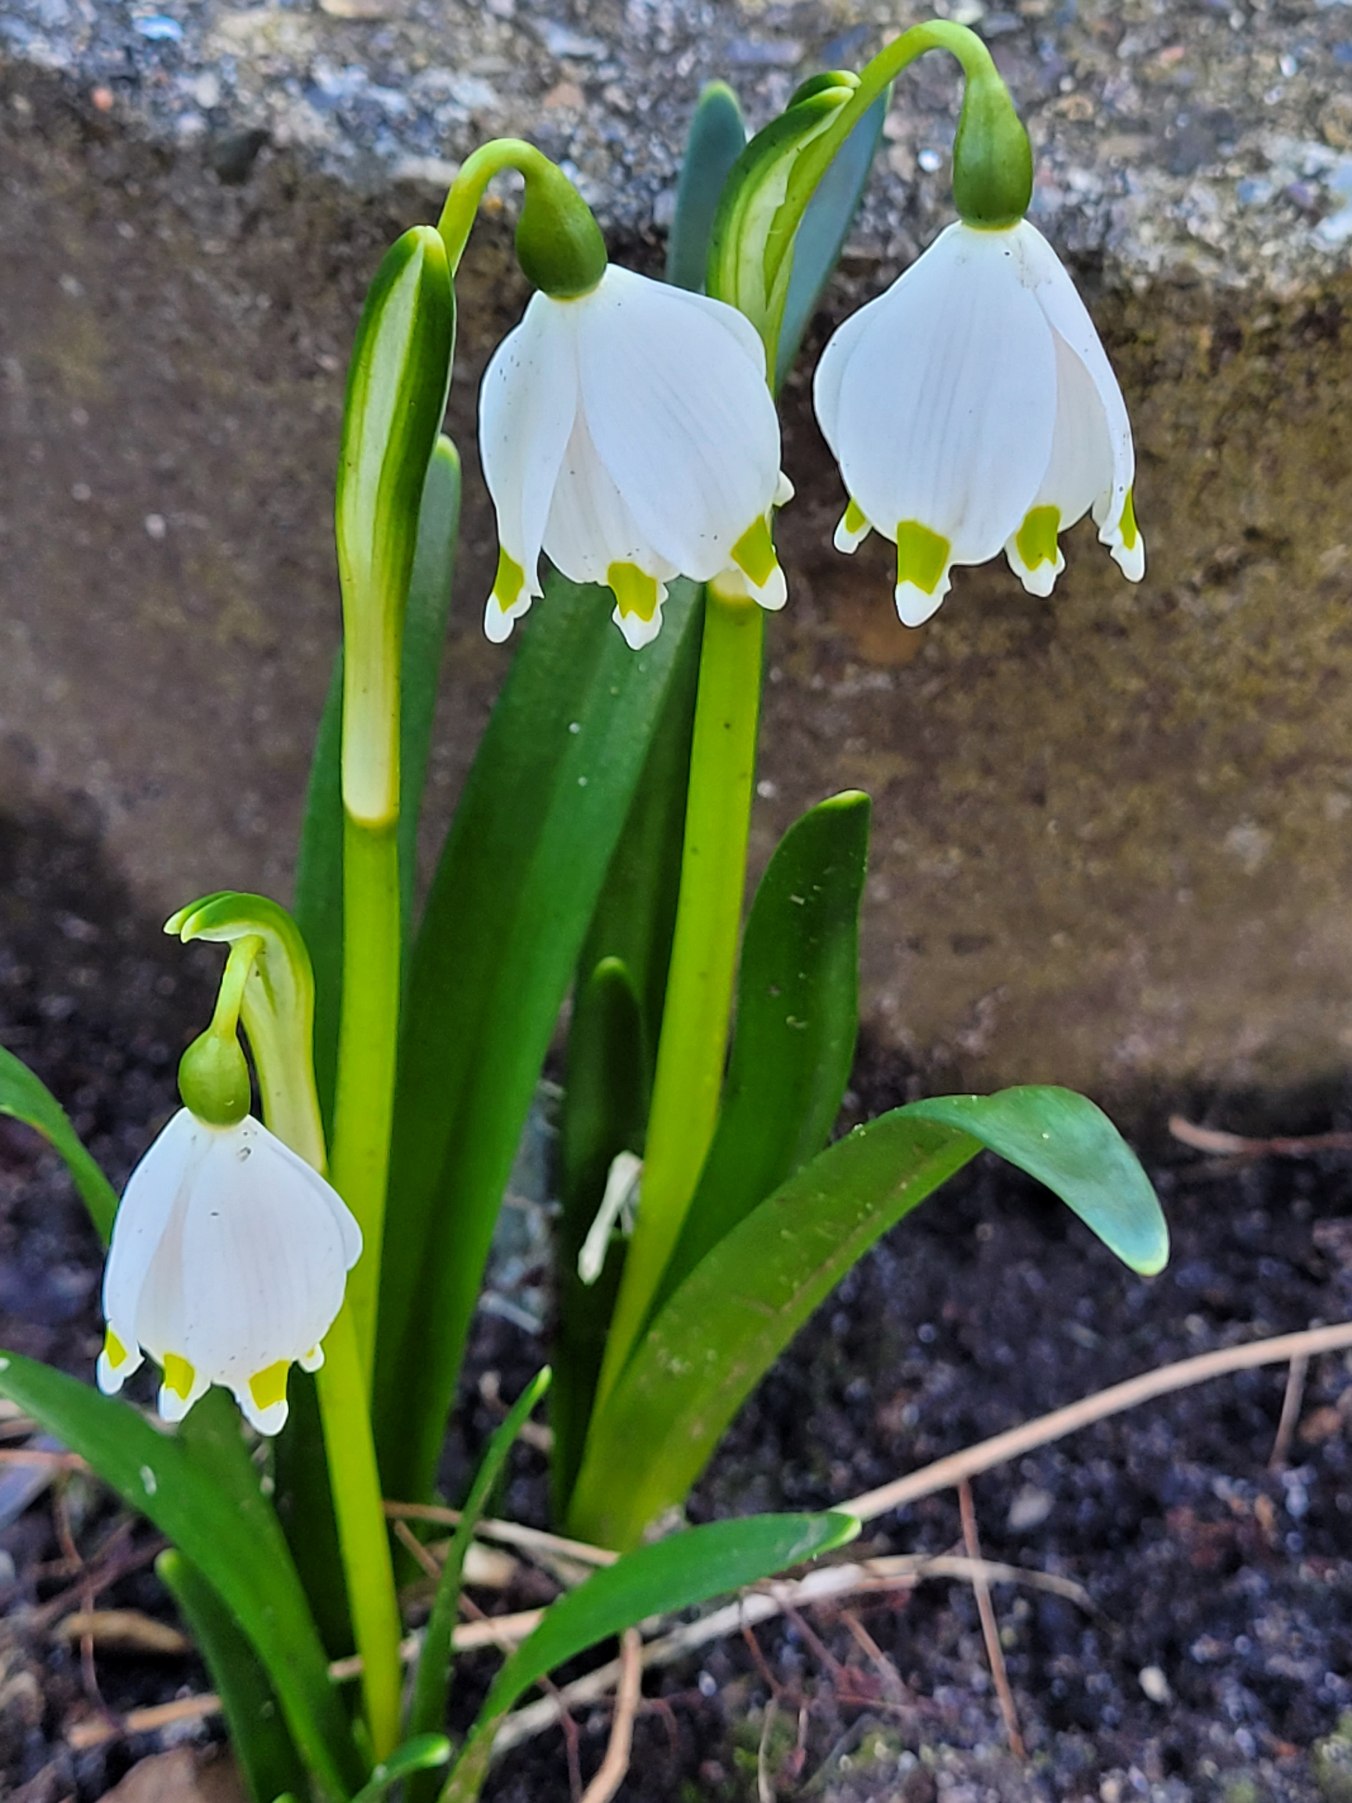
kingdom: Plantae
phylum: Tracheophyta
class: Liliopsida
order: Asparagales
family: Amaryllidaceae
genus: Leucojum
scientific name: Leucojum vernum
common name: Dorthealilje
